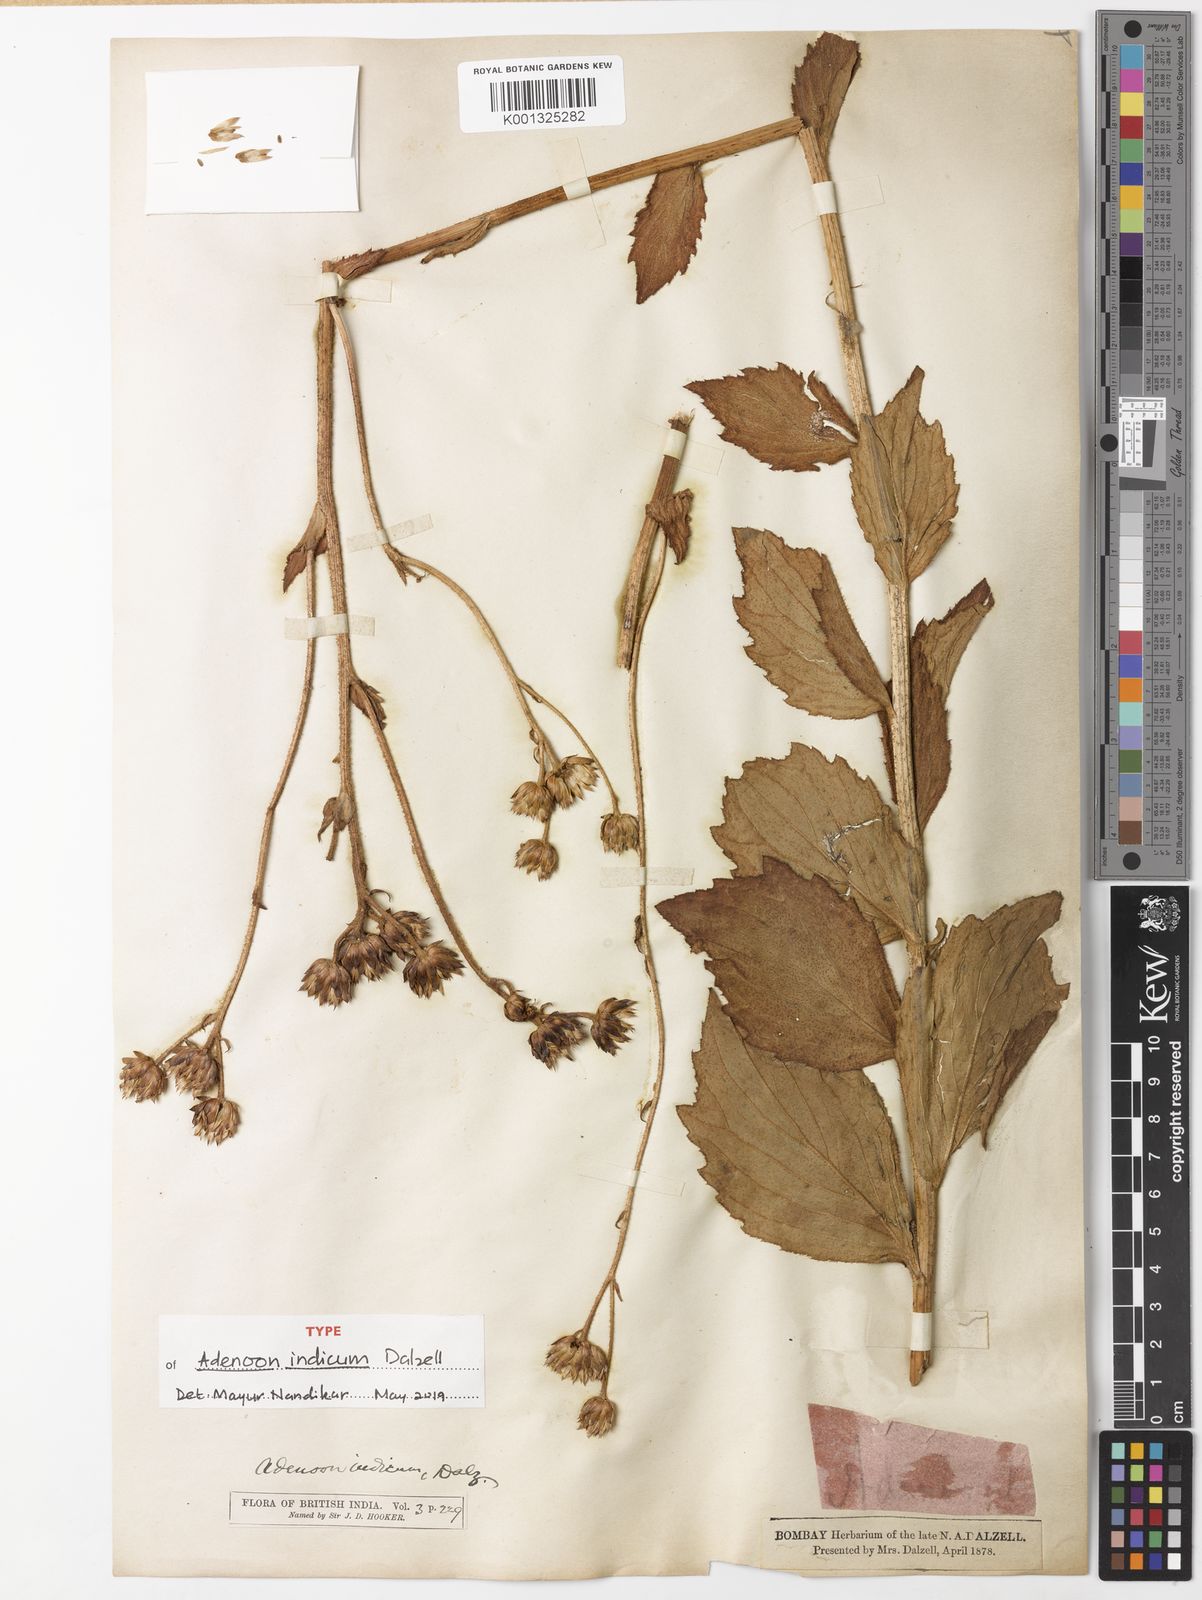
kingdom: Plantae
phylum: Tracheophyta
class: Magnoliopsida
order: Asterales
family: Asteraceae
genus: Adenoon
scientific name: Adenoon indicum
